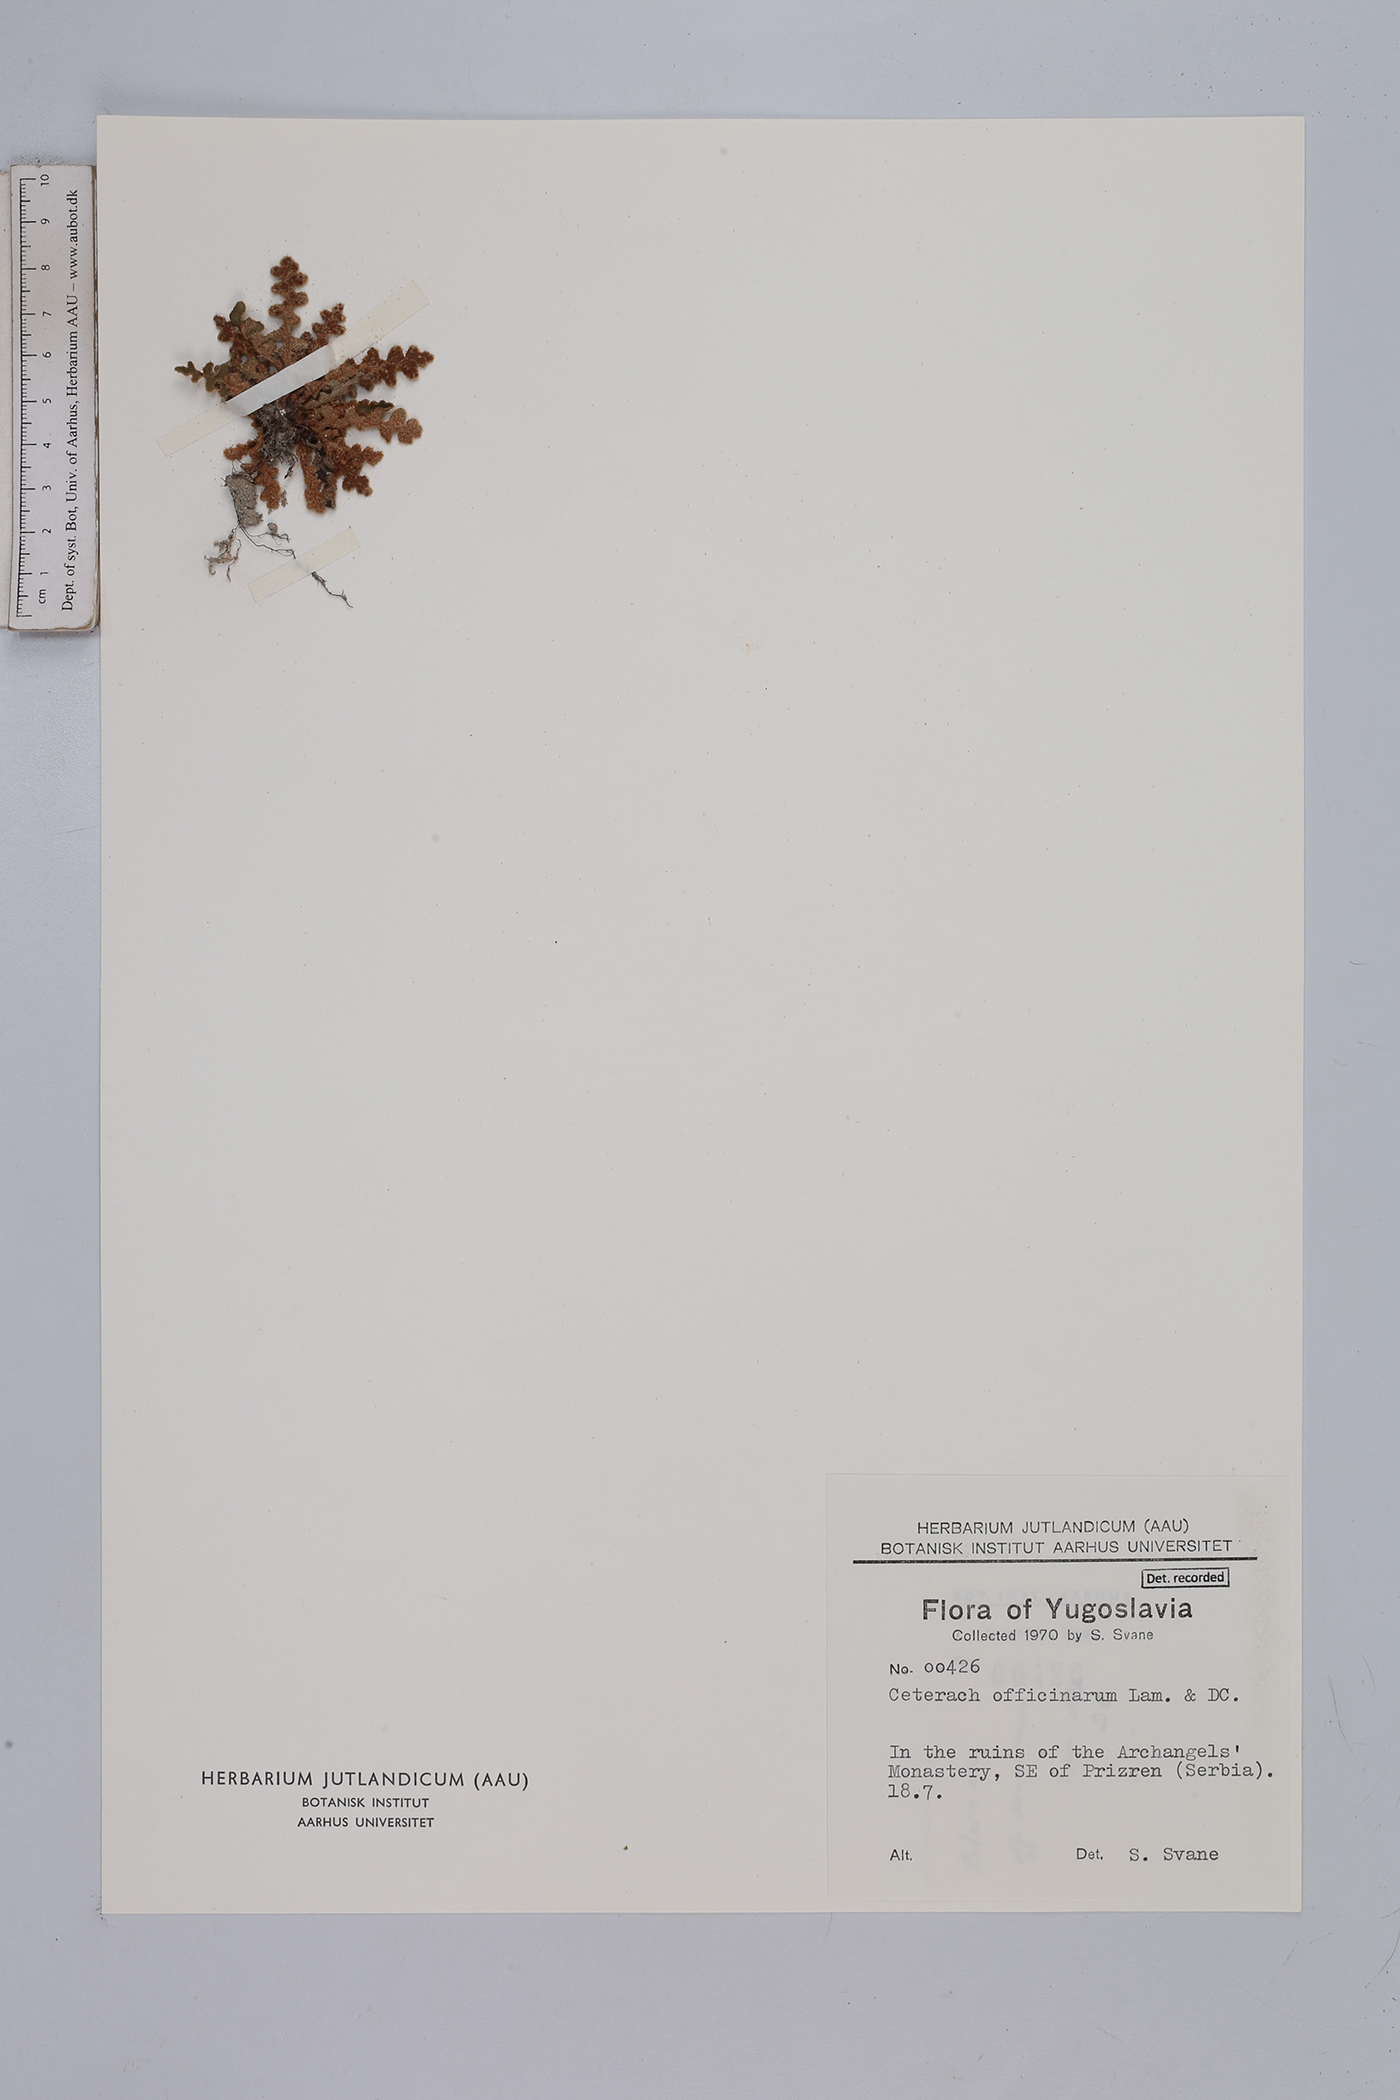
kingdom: Plantae
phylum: Tracheophyta
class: Polypodiopsida
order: Polypodiales
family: Aspleniaceae
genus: Asplenium
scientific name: Asplenium ceterach
